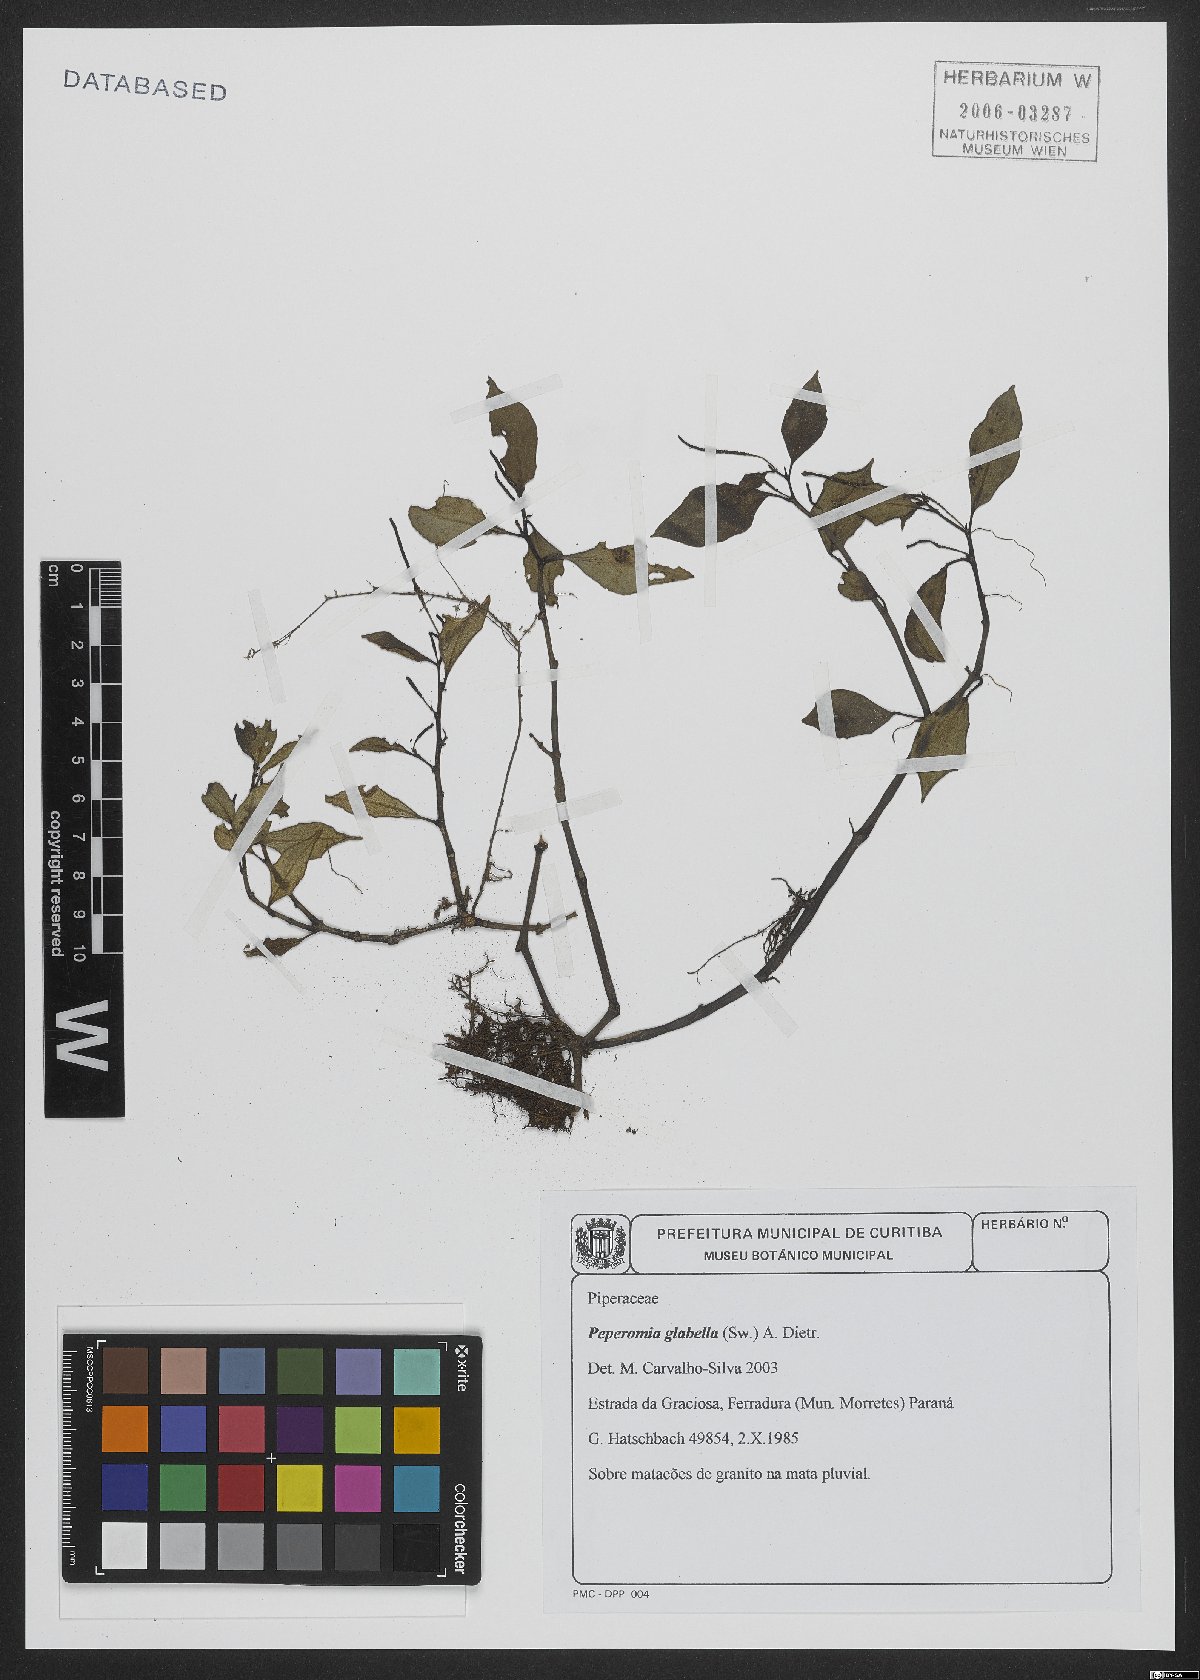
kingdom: Plantae
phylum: Tracheophyta
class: Magnoliopsida
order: Piperales
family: Piperaceae
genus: Peperomia
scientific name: Peperomia glabella
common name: Cypress peperomia
